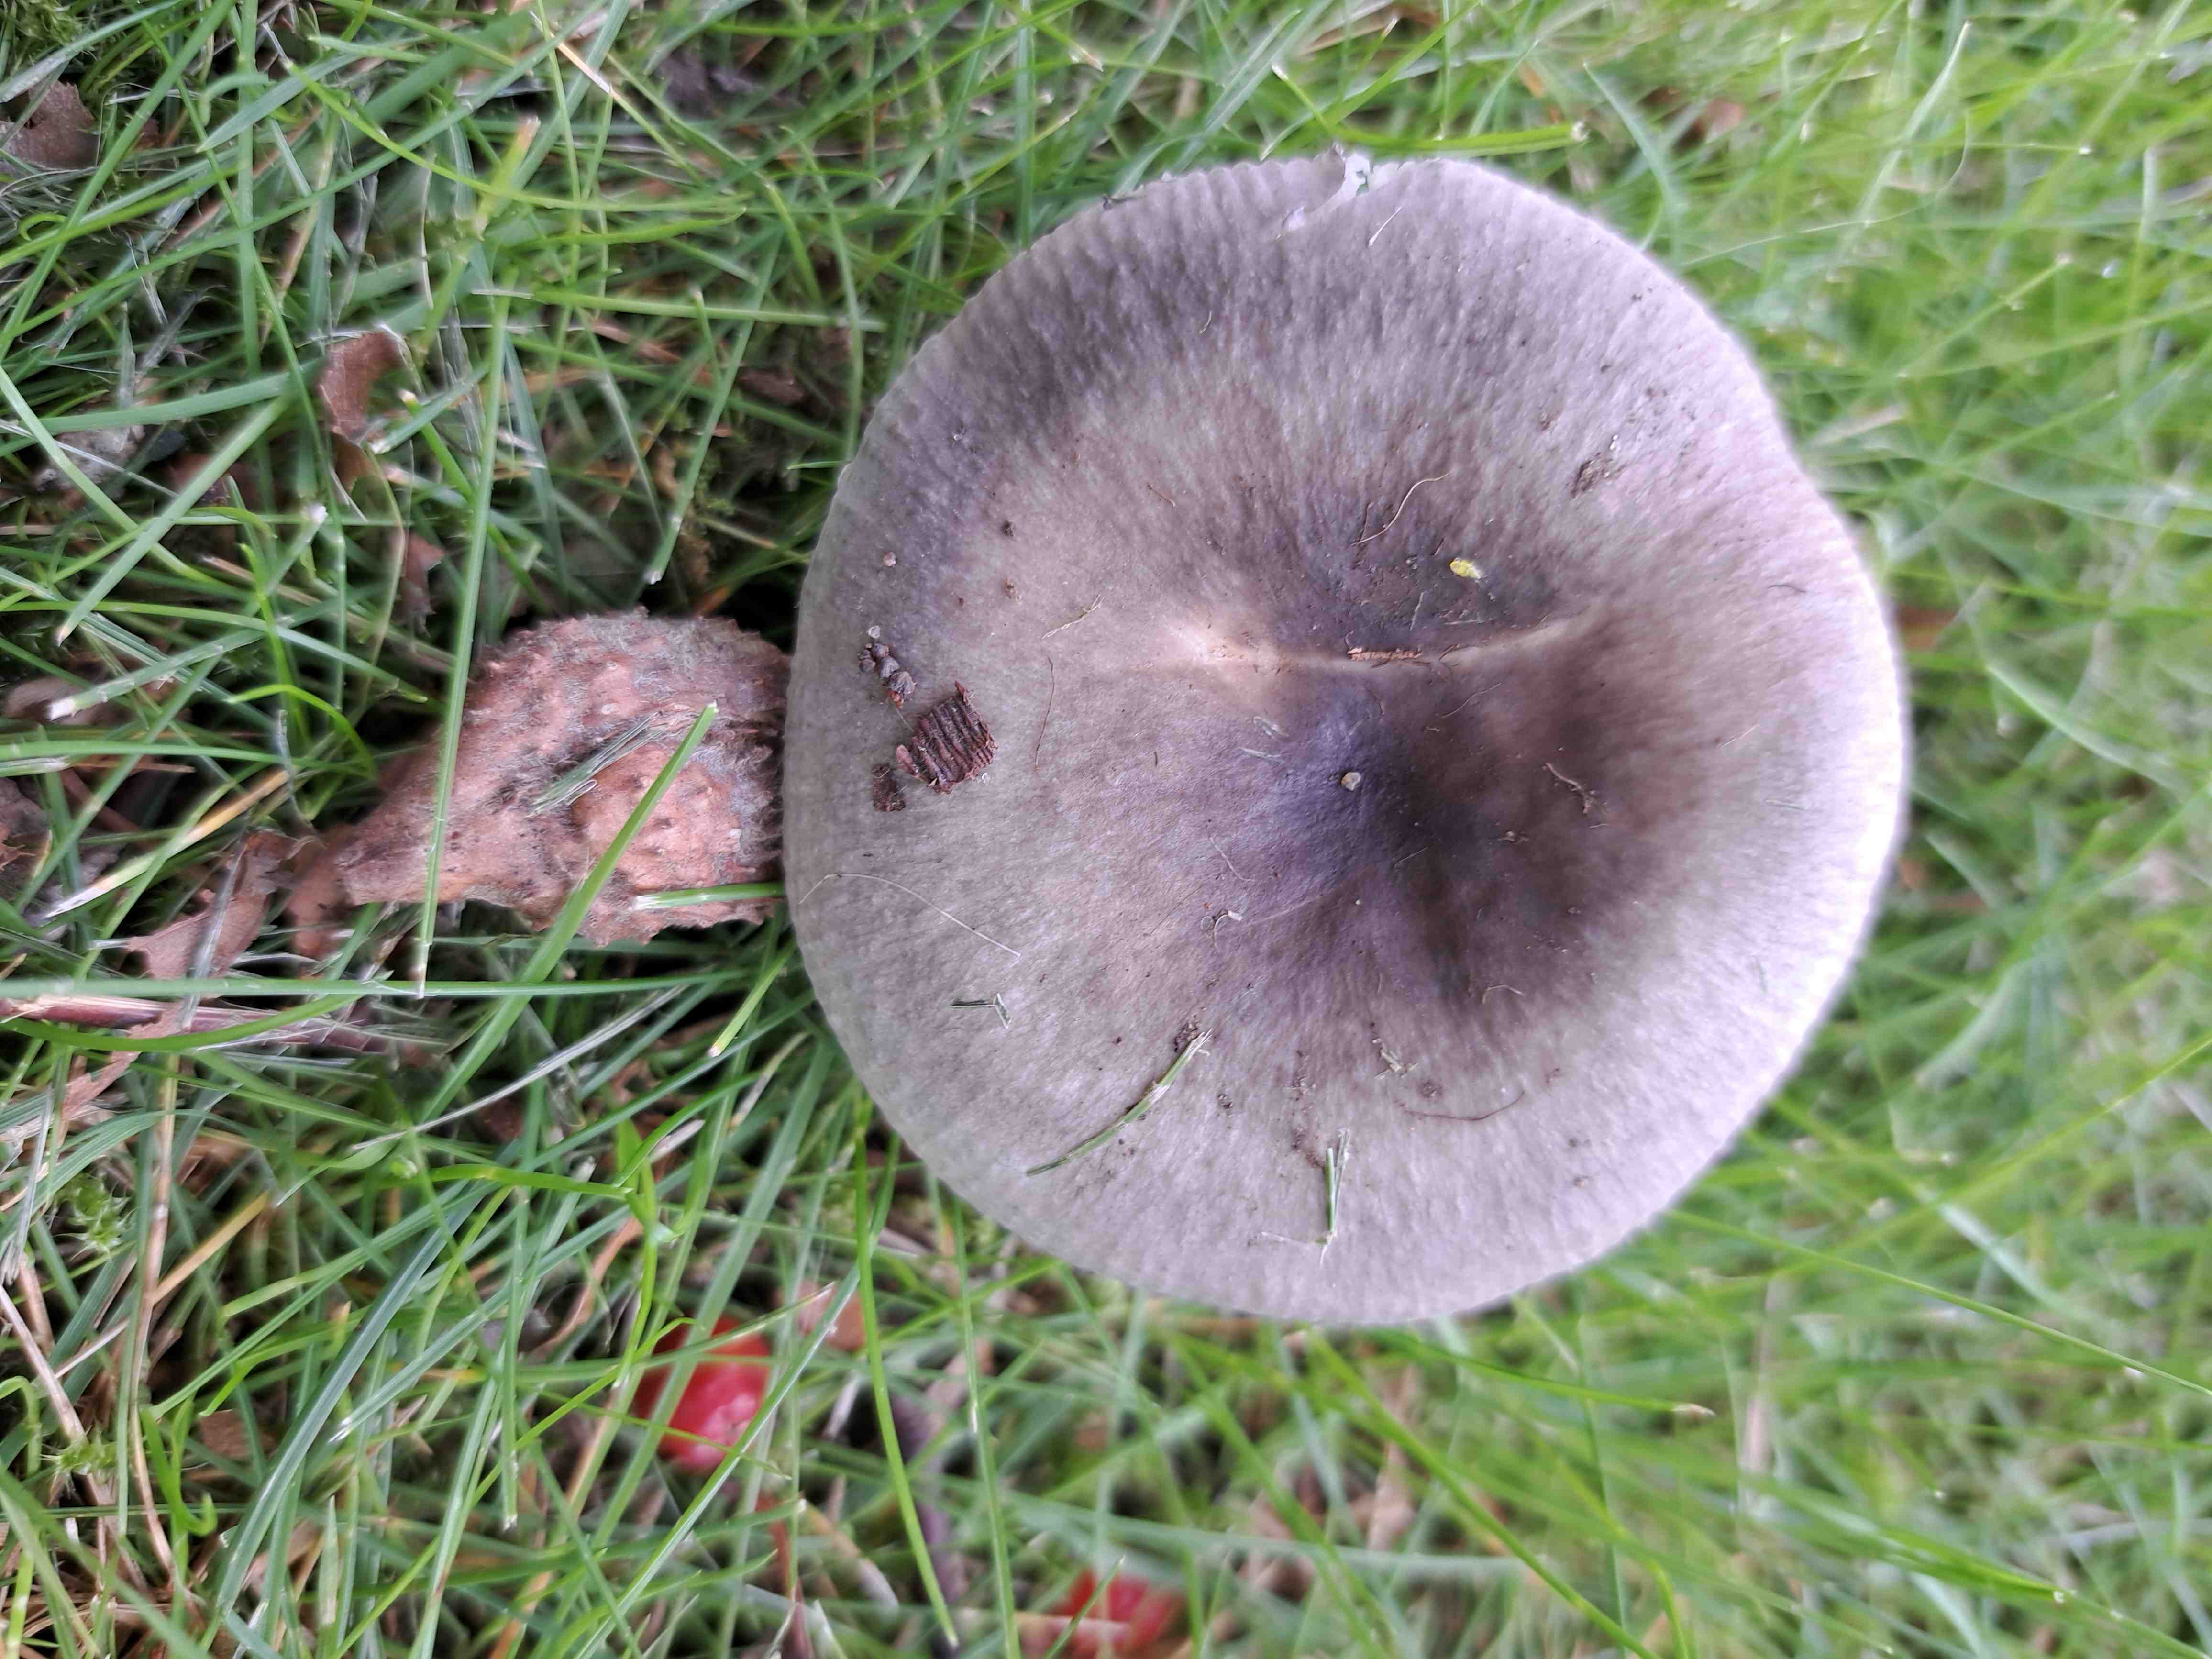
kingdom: Fungi
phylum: Basidiomycota
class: Agaricomycetes
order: Russulales
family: Russulaceae
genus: Russula
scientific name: Russula
